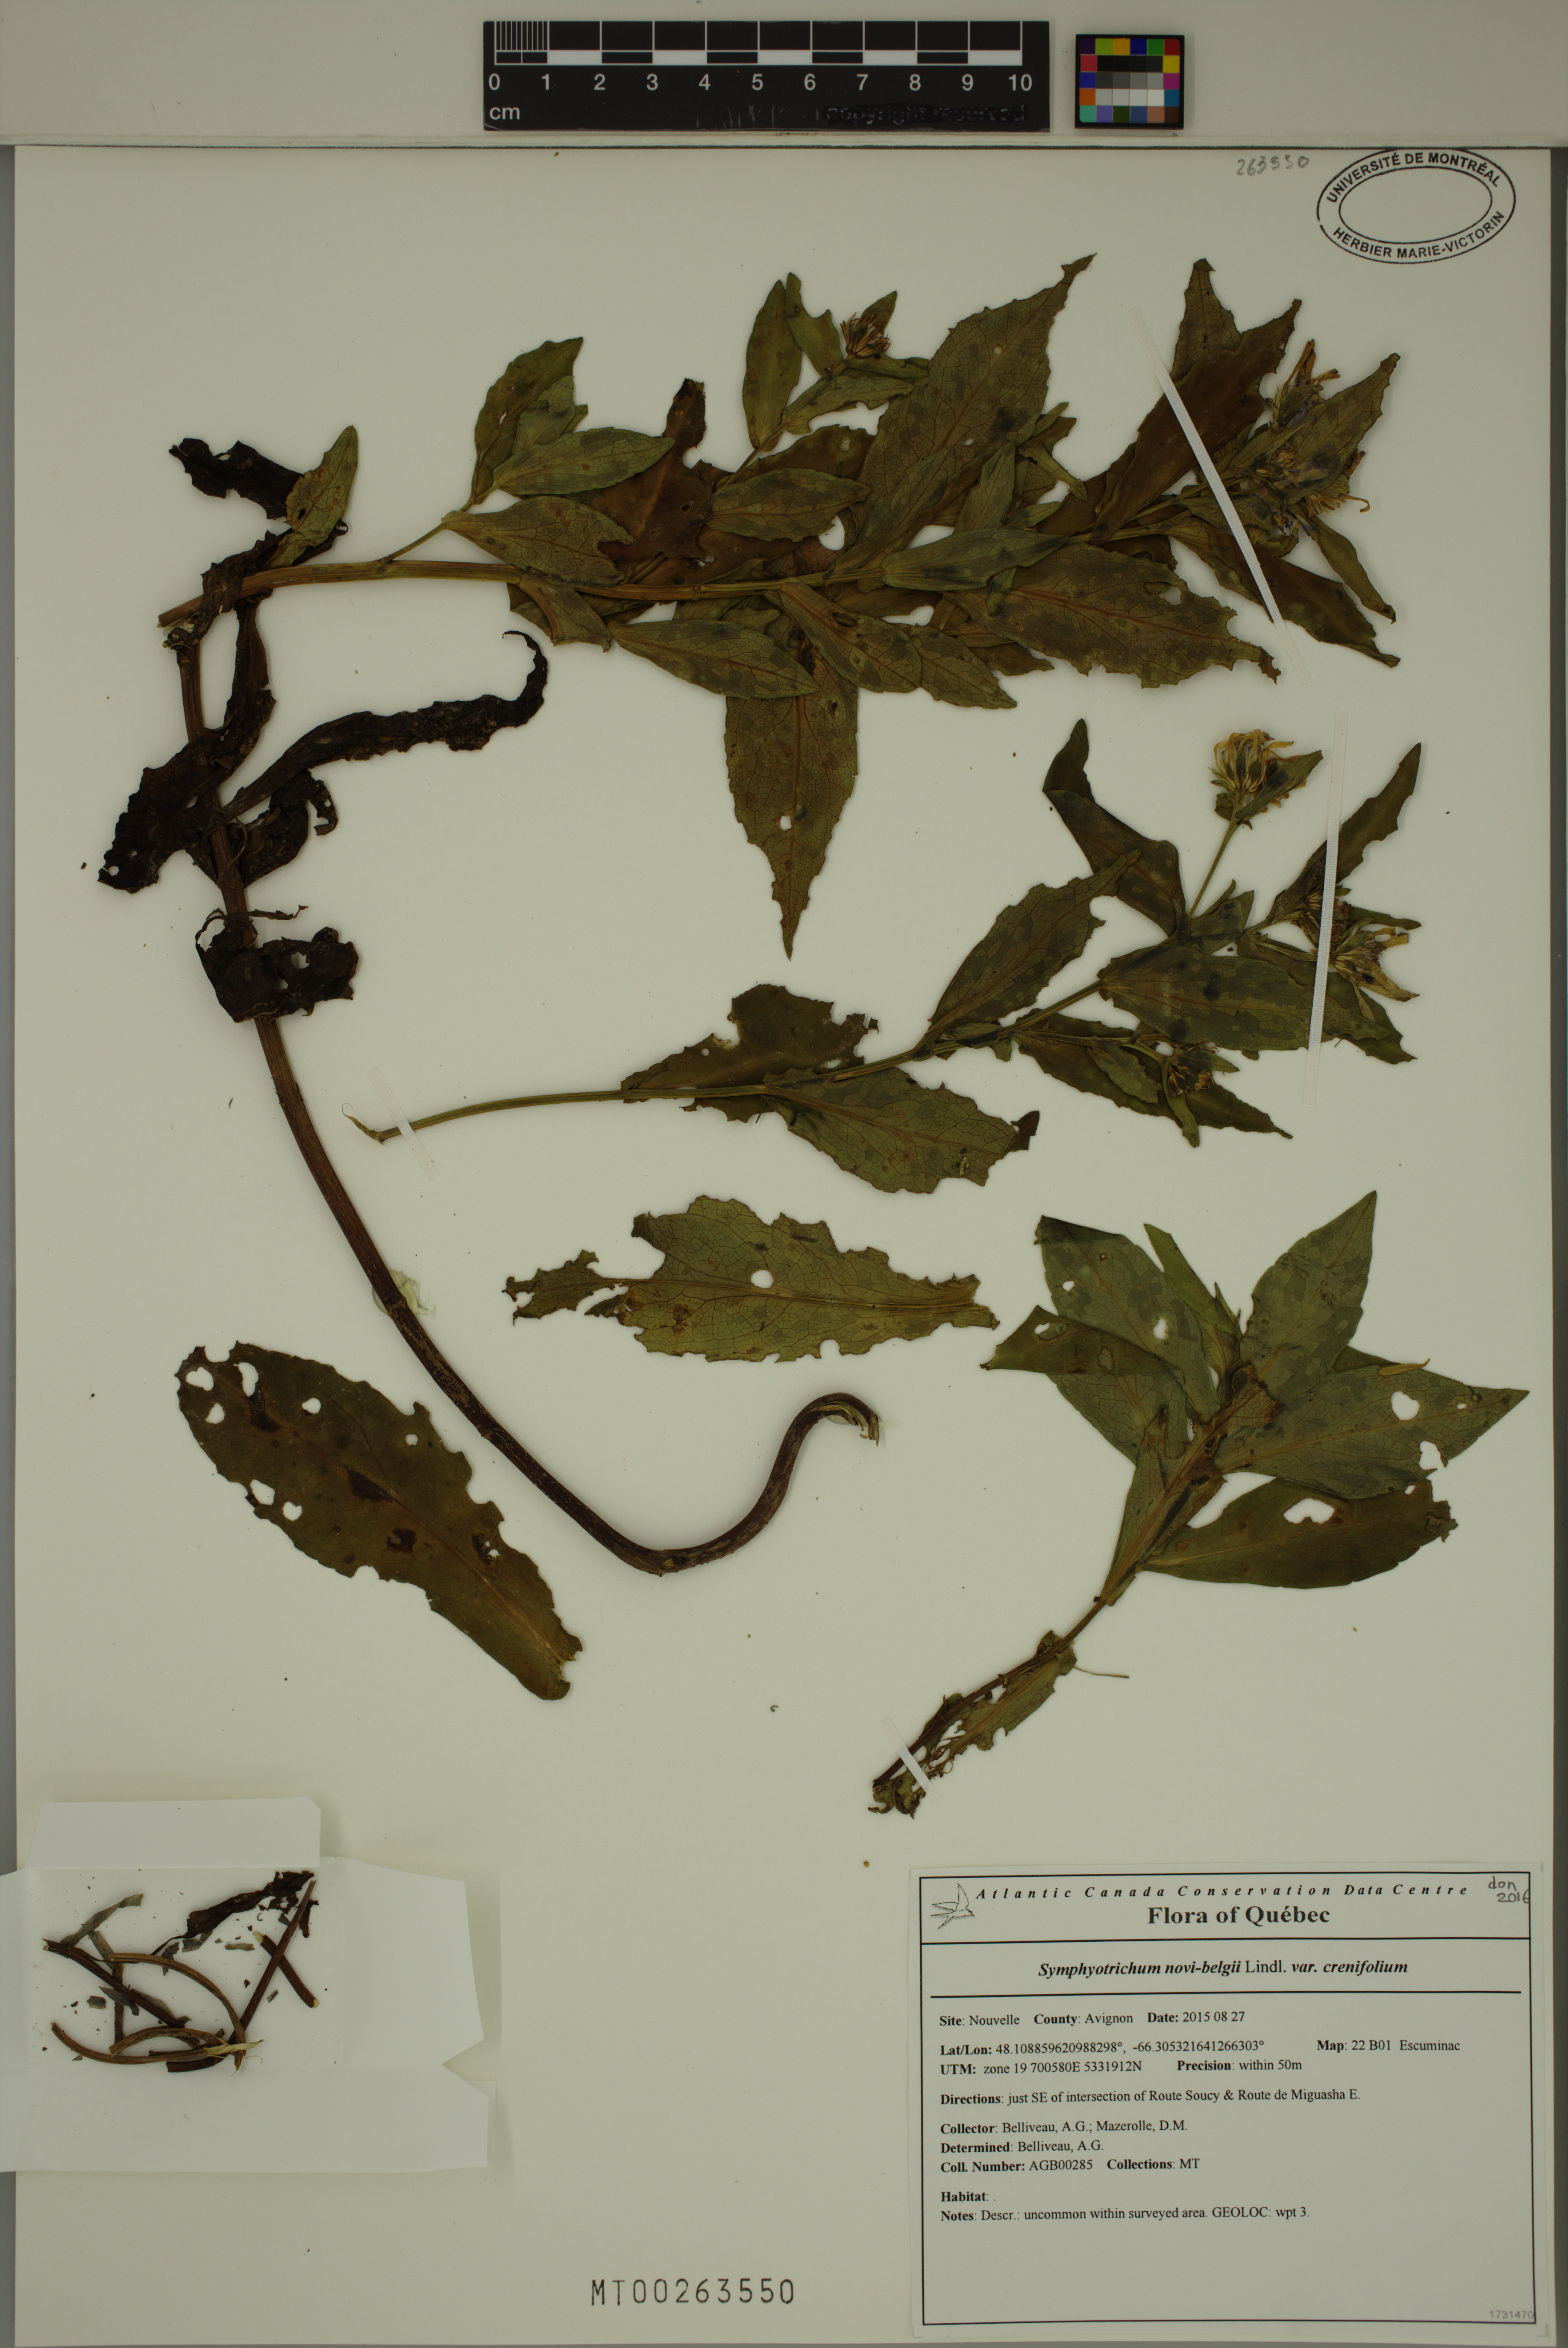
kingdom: Plantae
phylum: Tracheophyta
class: Magnoliopsida
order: Asterales
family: Asteraceae
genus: Symphyotrichum
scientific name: Symphyotrichum novi-belgii
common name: Michaelmas daisy
